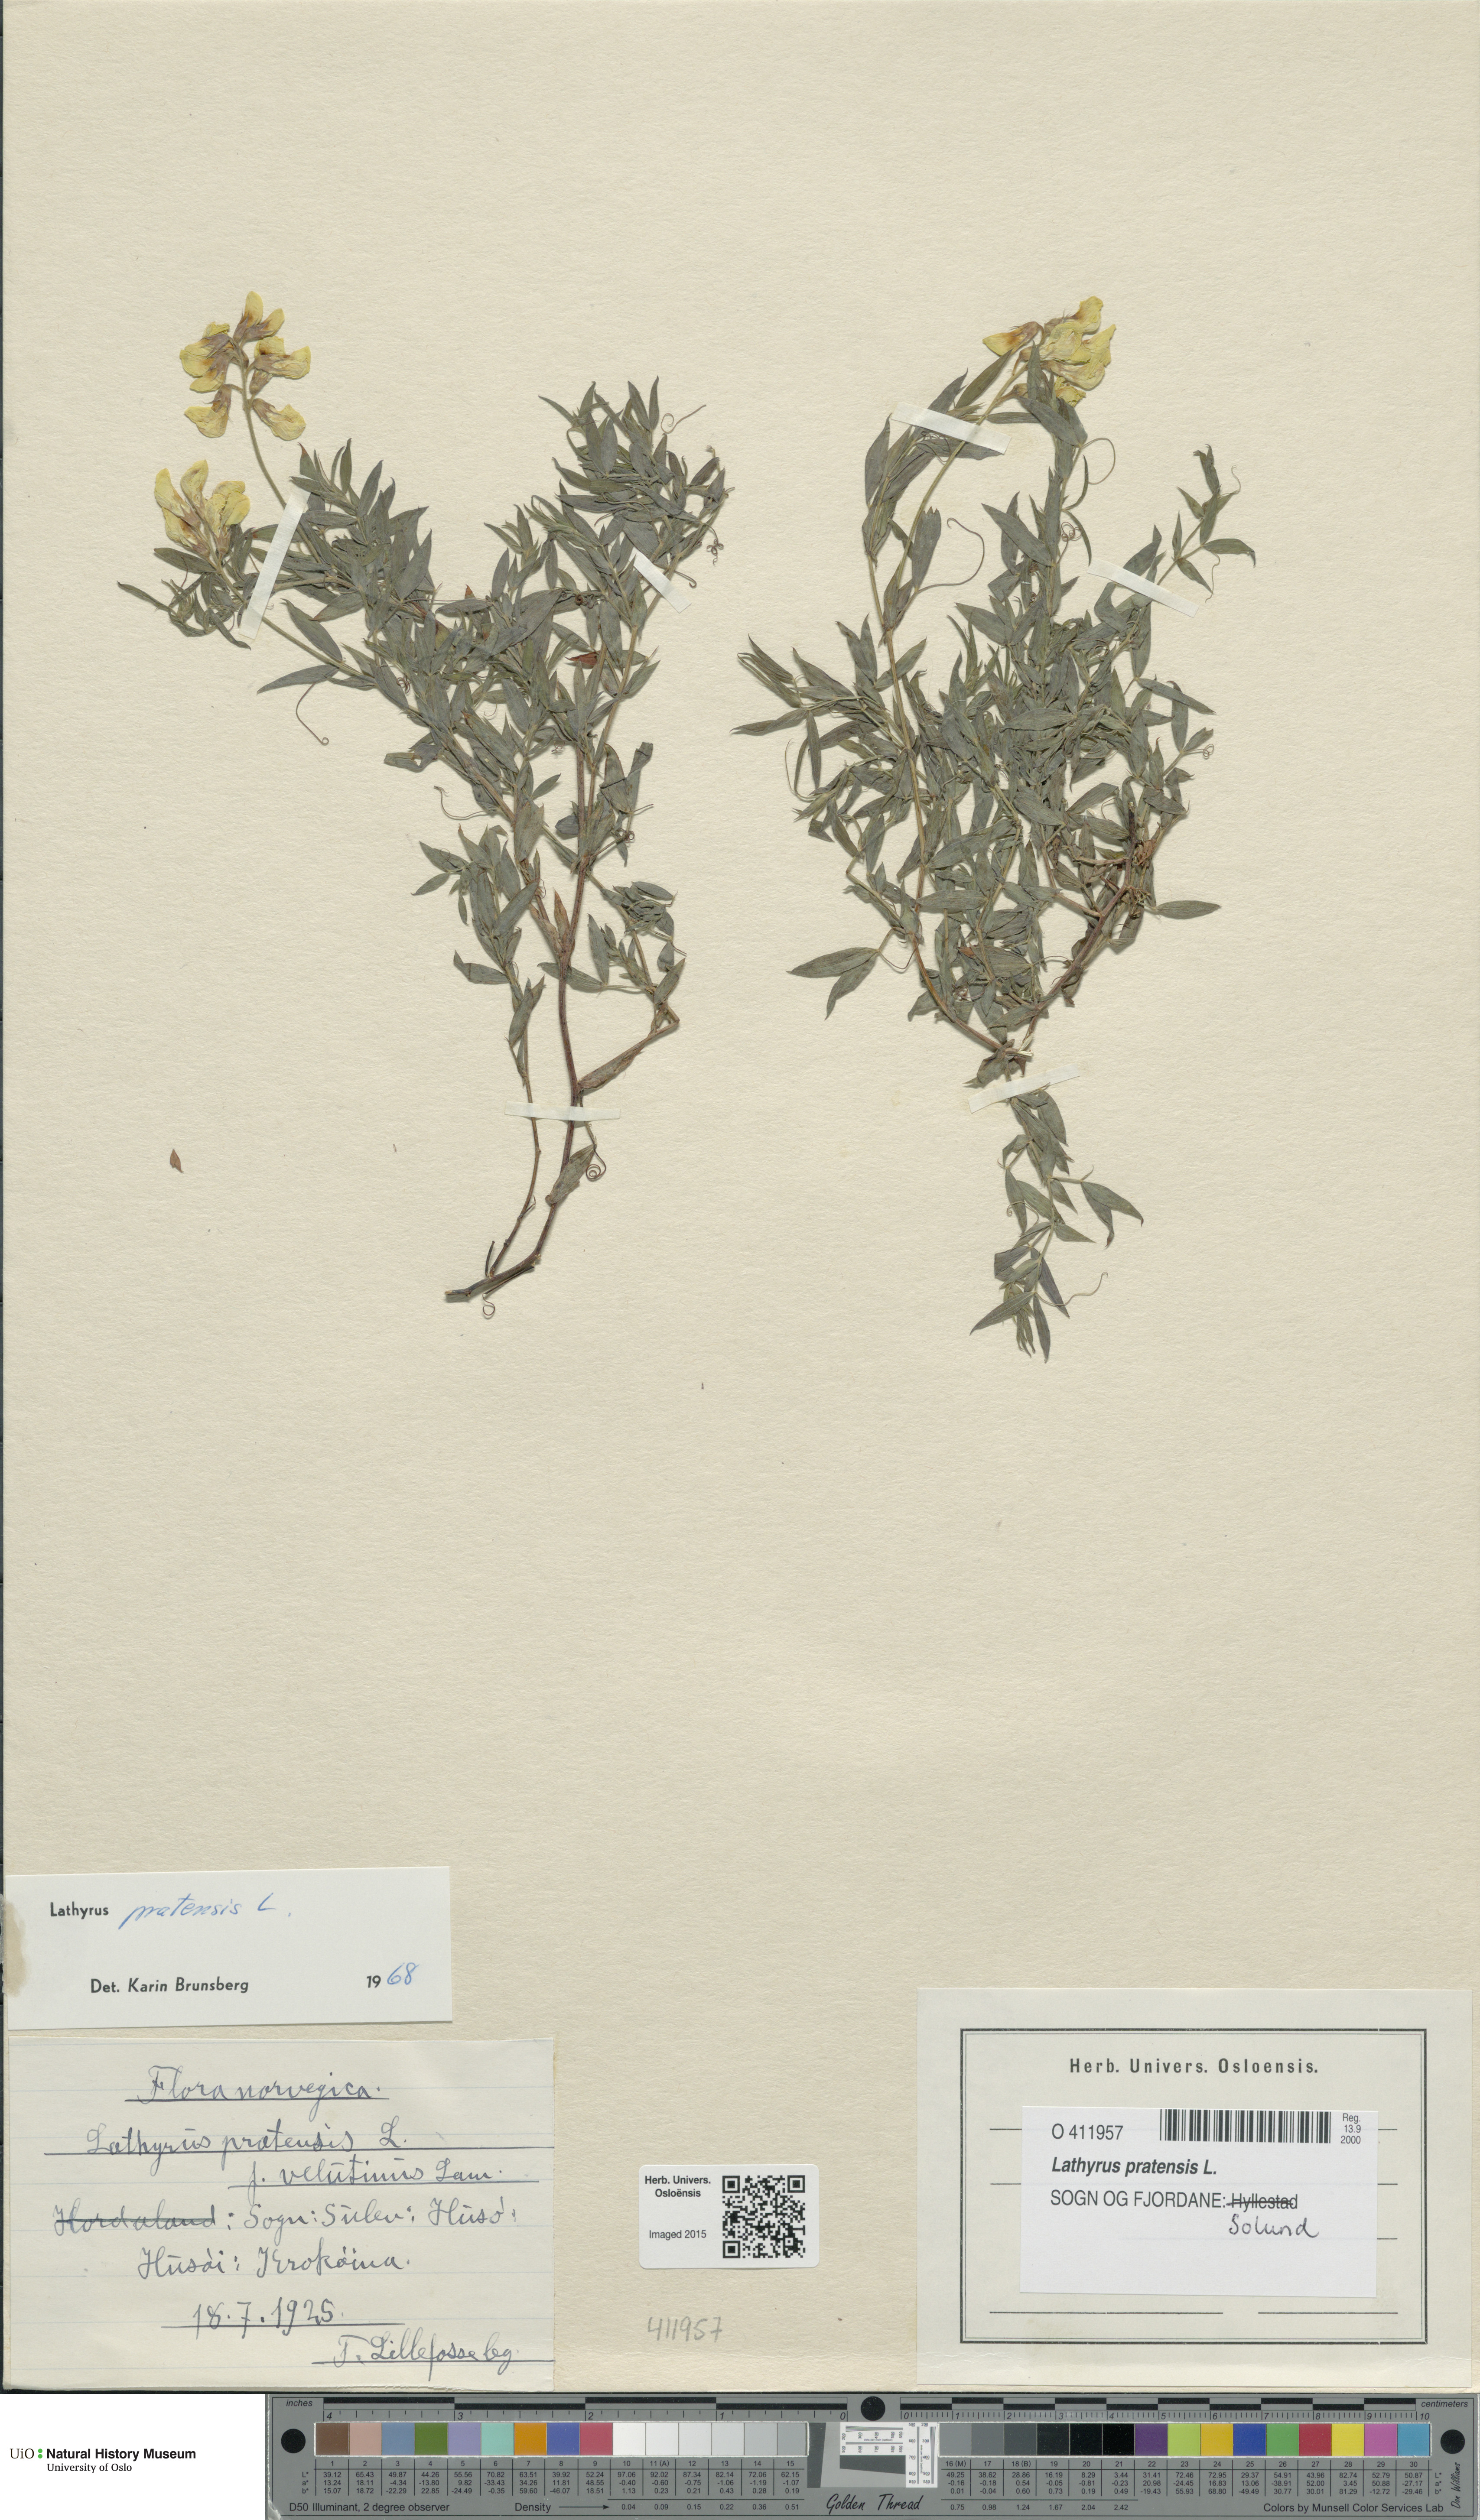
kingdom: Plantae
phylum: Tracheophyta
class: Magnoliopsida
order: Fabales
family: Fabaceae
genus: Lathyrus
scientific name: Lathyrus pratensis
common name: Meadow vetchling
